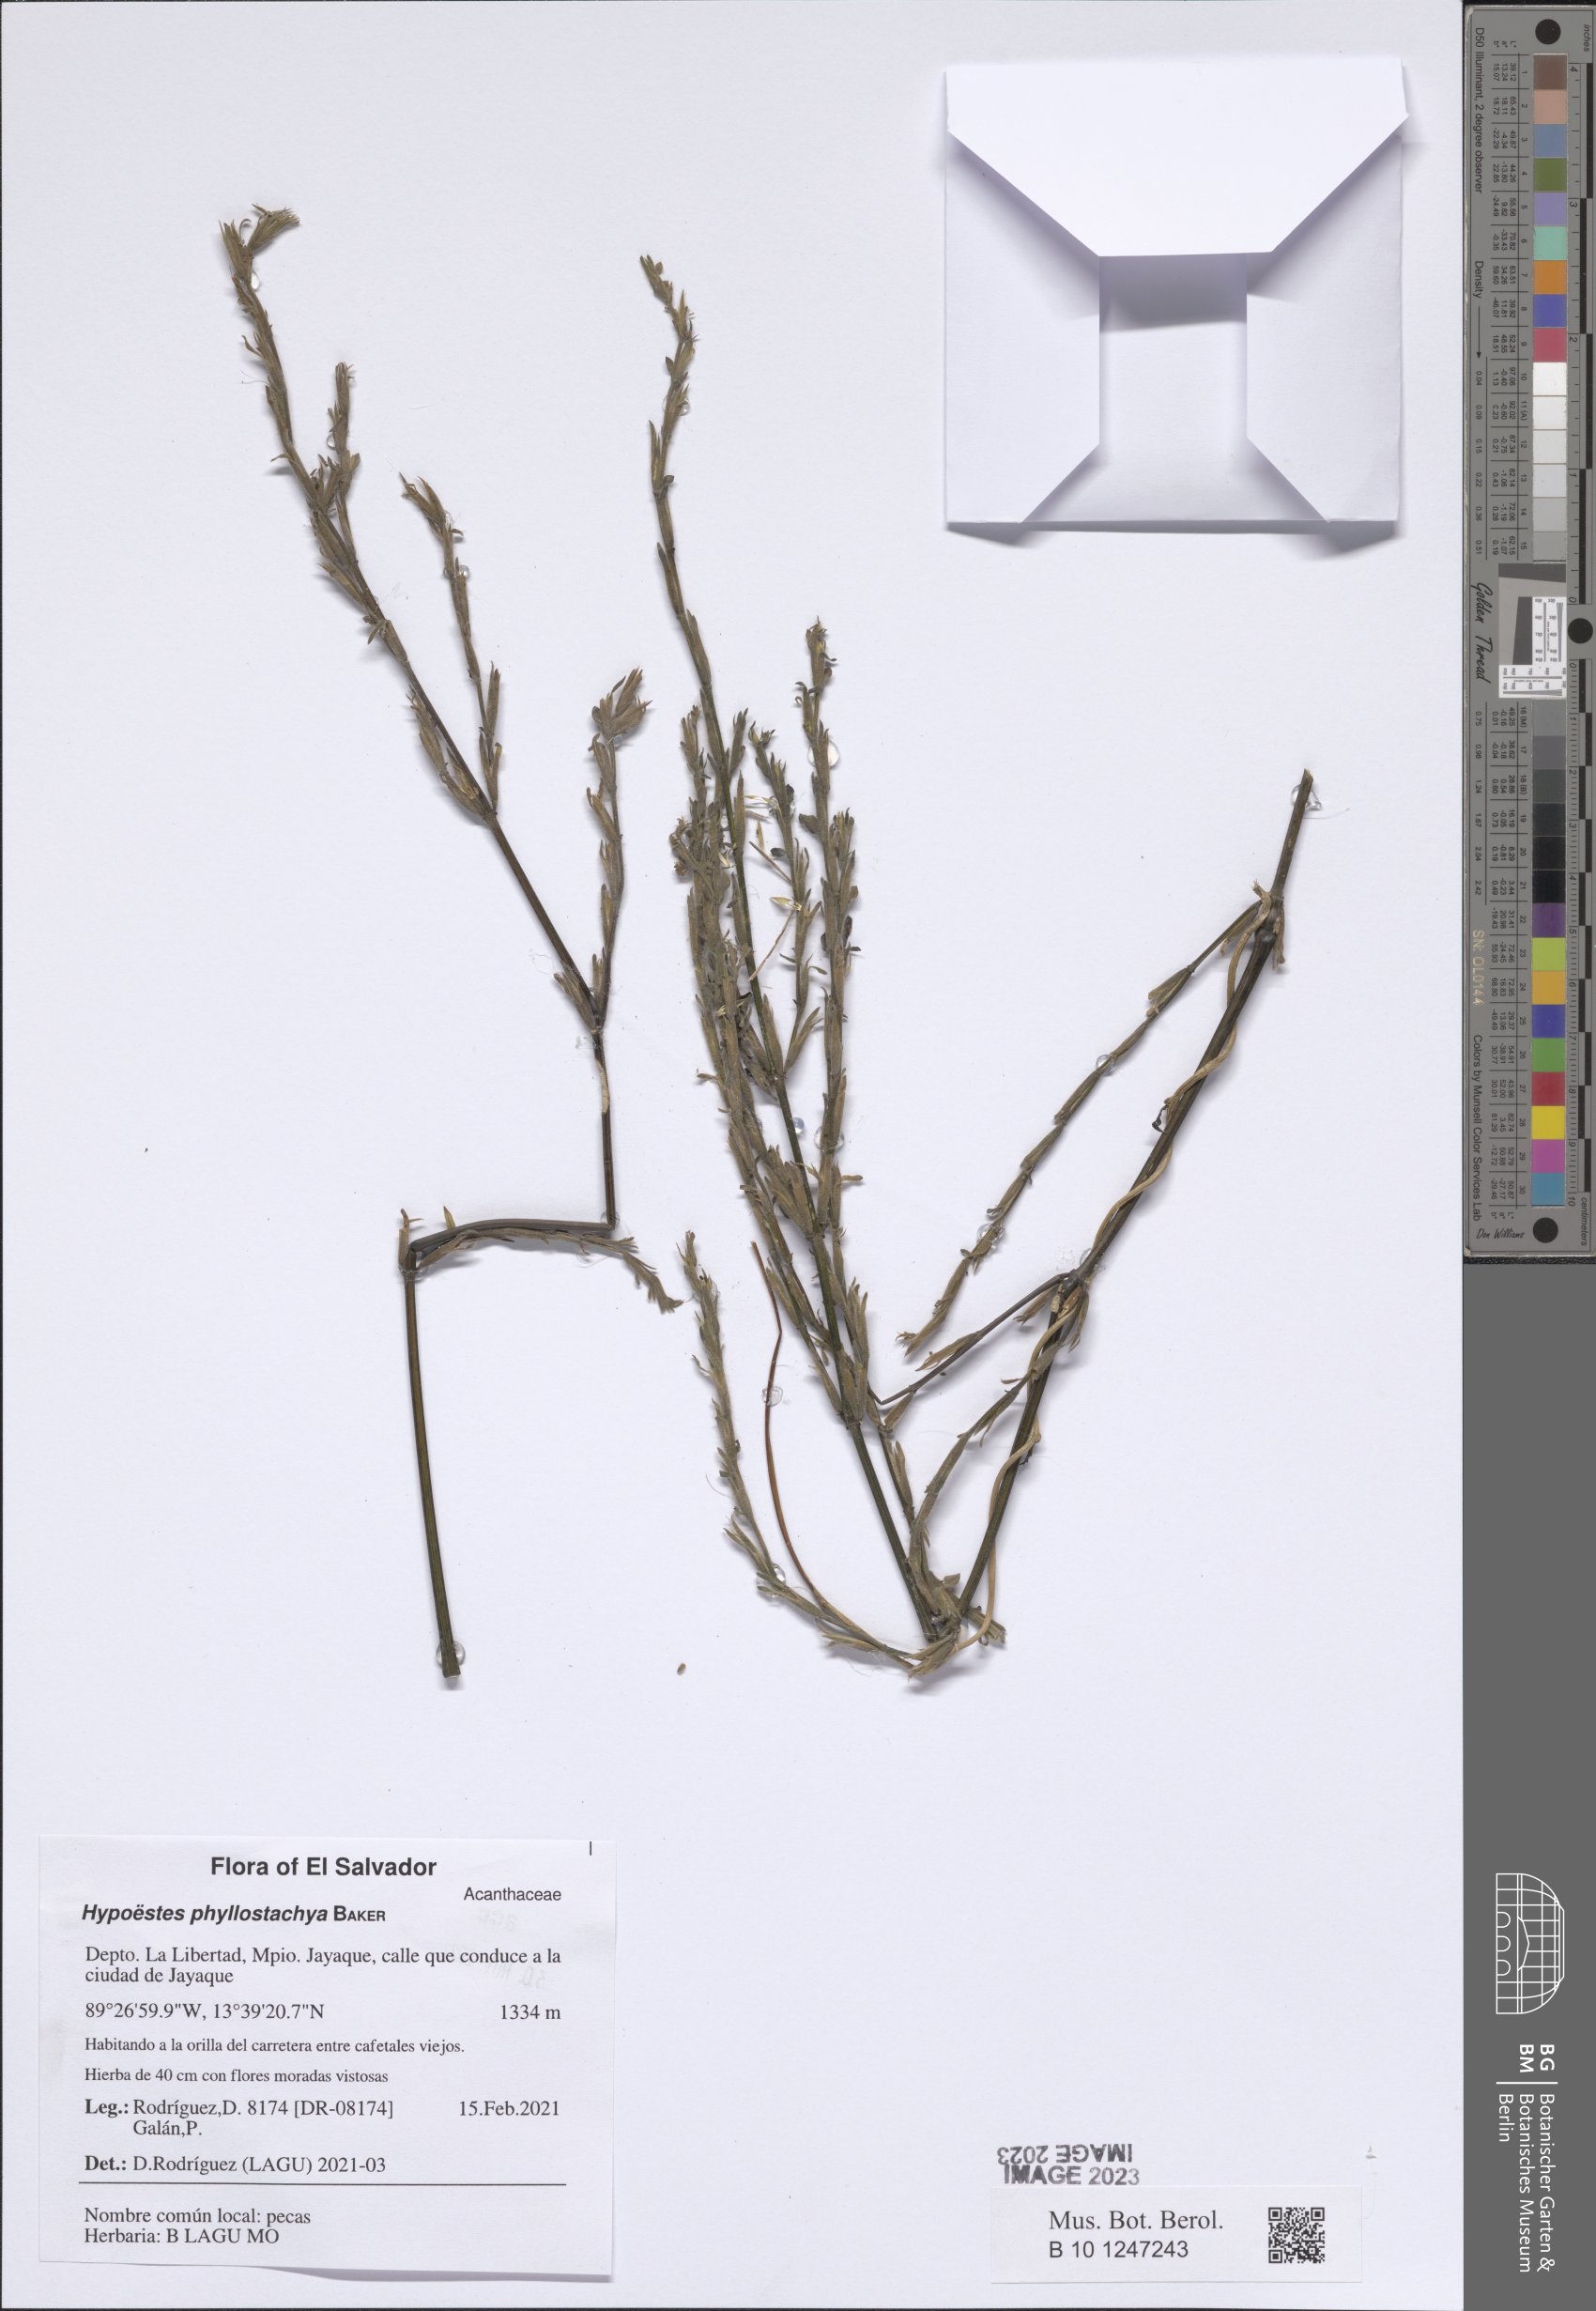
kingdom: Plantae
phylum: Tracheophyta
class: Magnoliopsida
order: Lamiales
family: Acanthaceae
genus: Hypoestes
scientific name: Hypoestes phyllostachya
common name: Polkadot-plant
